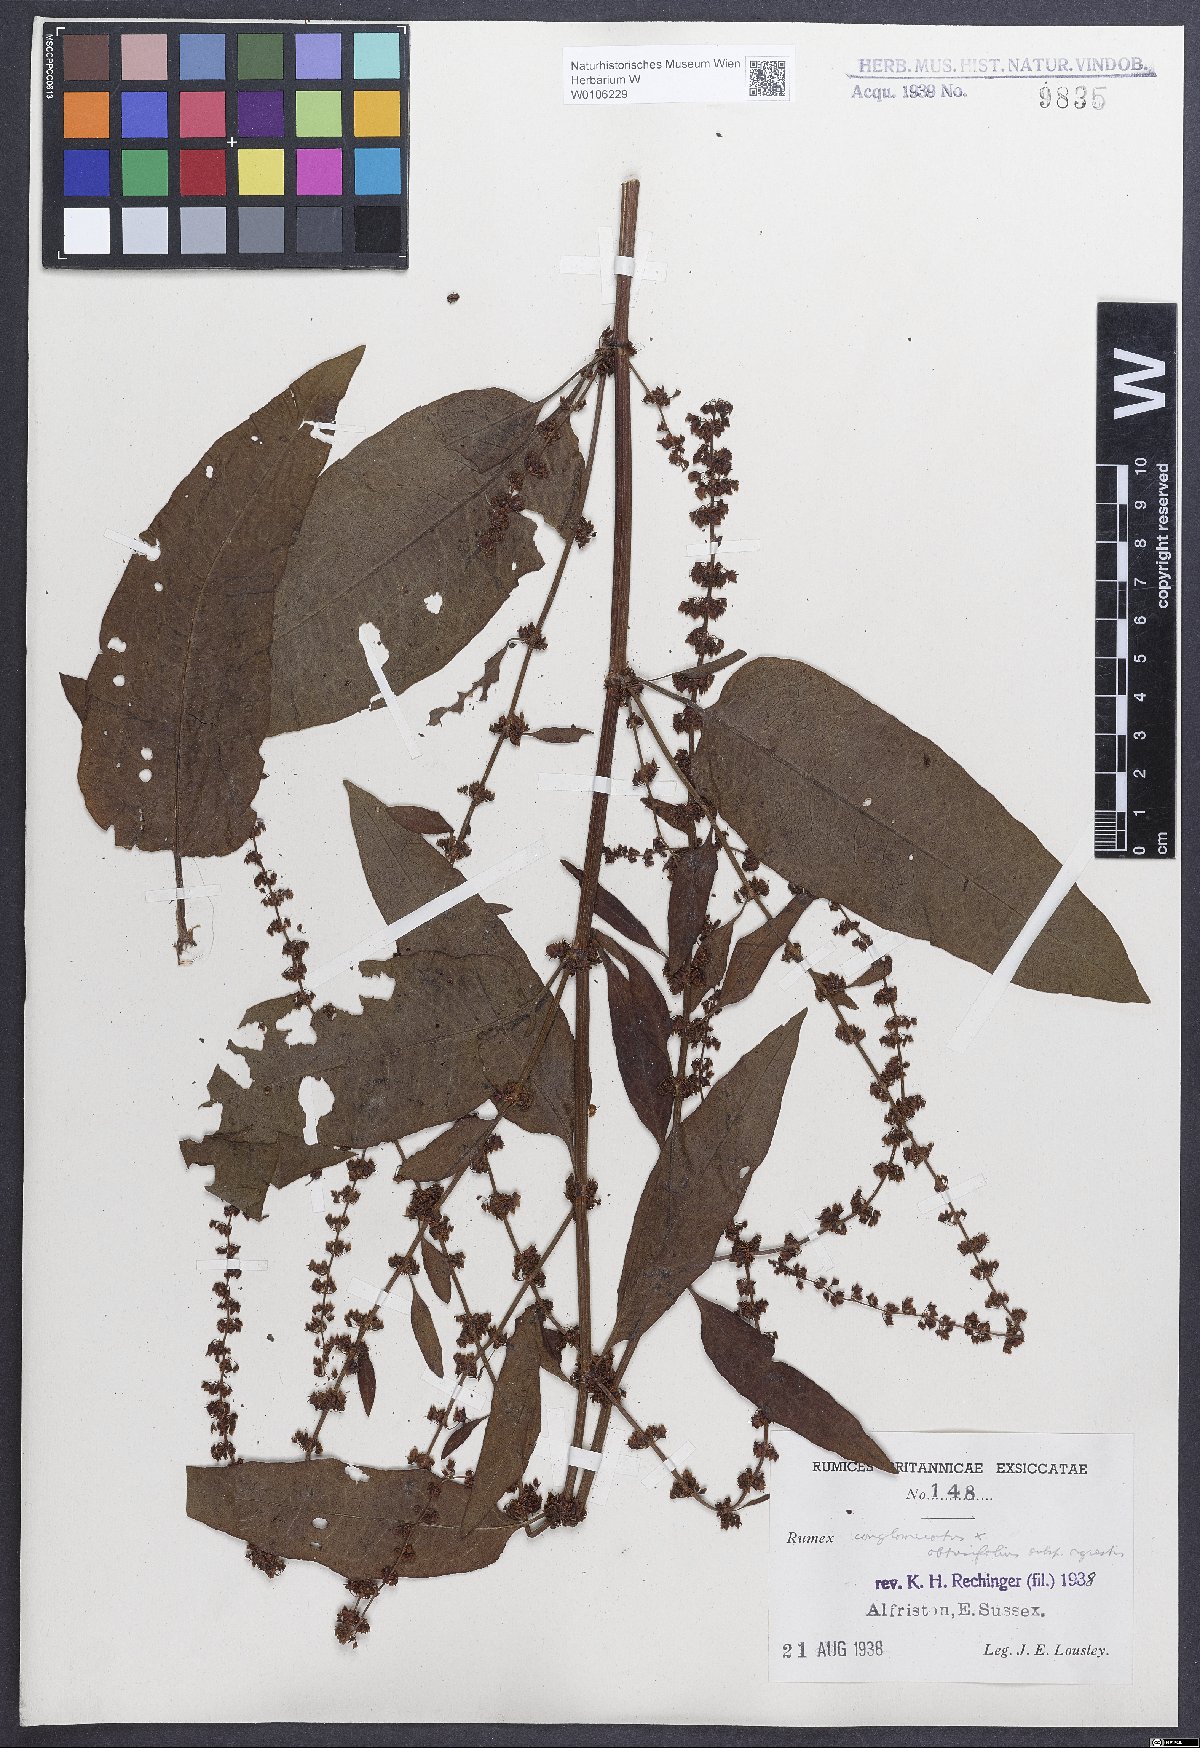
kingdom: Plantae
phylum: Tracheophyta
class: Magnoliopsida
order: Caryophyllales
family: Polygonaceae
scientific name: Polygonaceae
